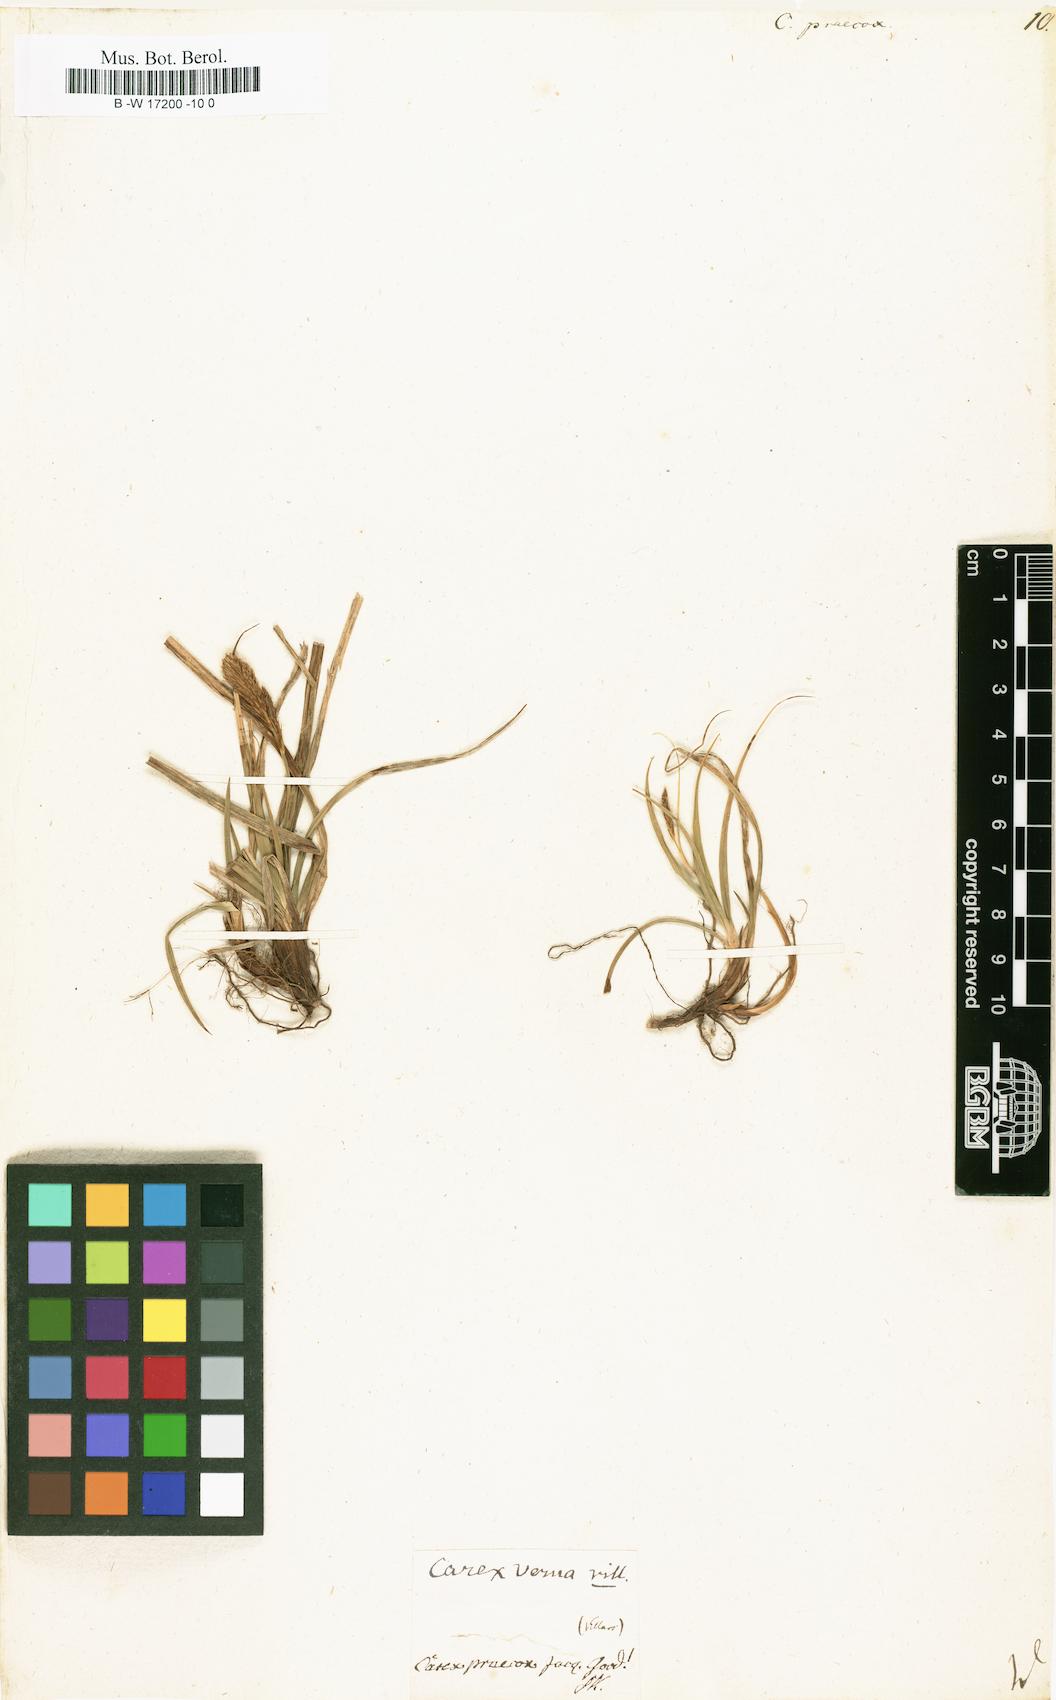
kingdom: Plantae
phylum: Tracheophyta
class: Liliopsida
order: Poales
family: Cyperaceae
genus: Carex
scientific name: Carex praecox
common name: Early sedge
